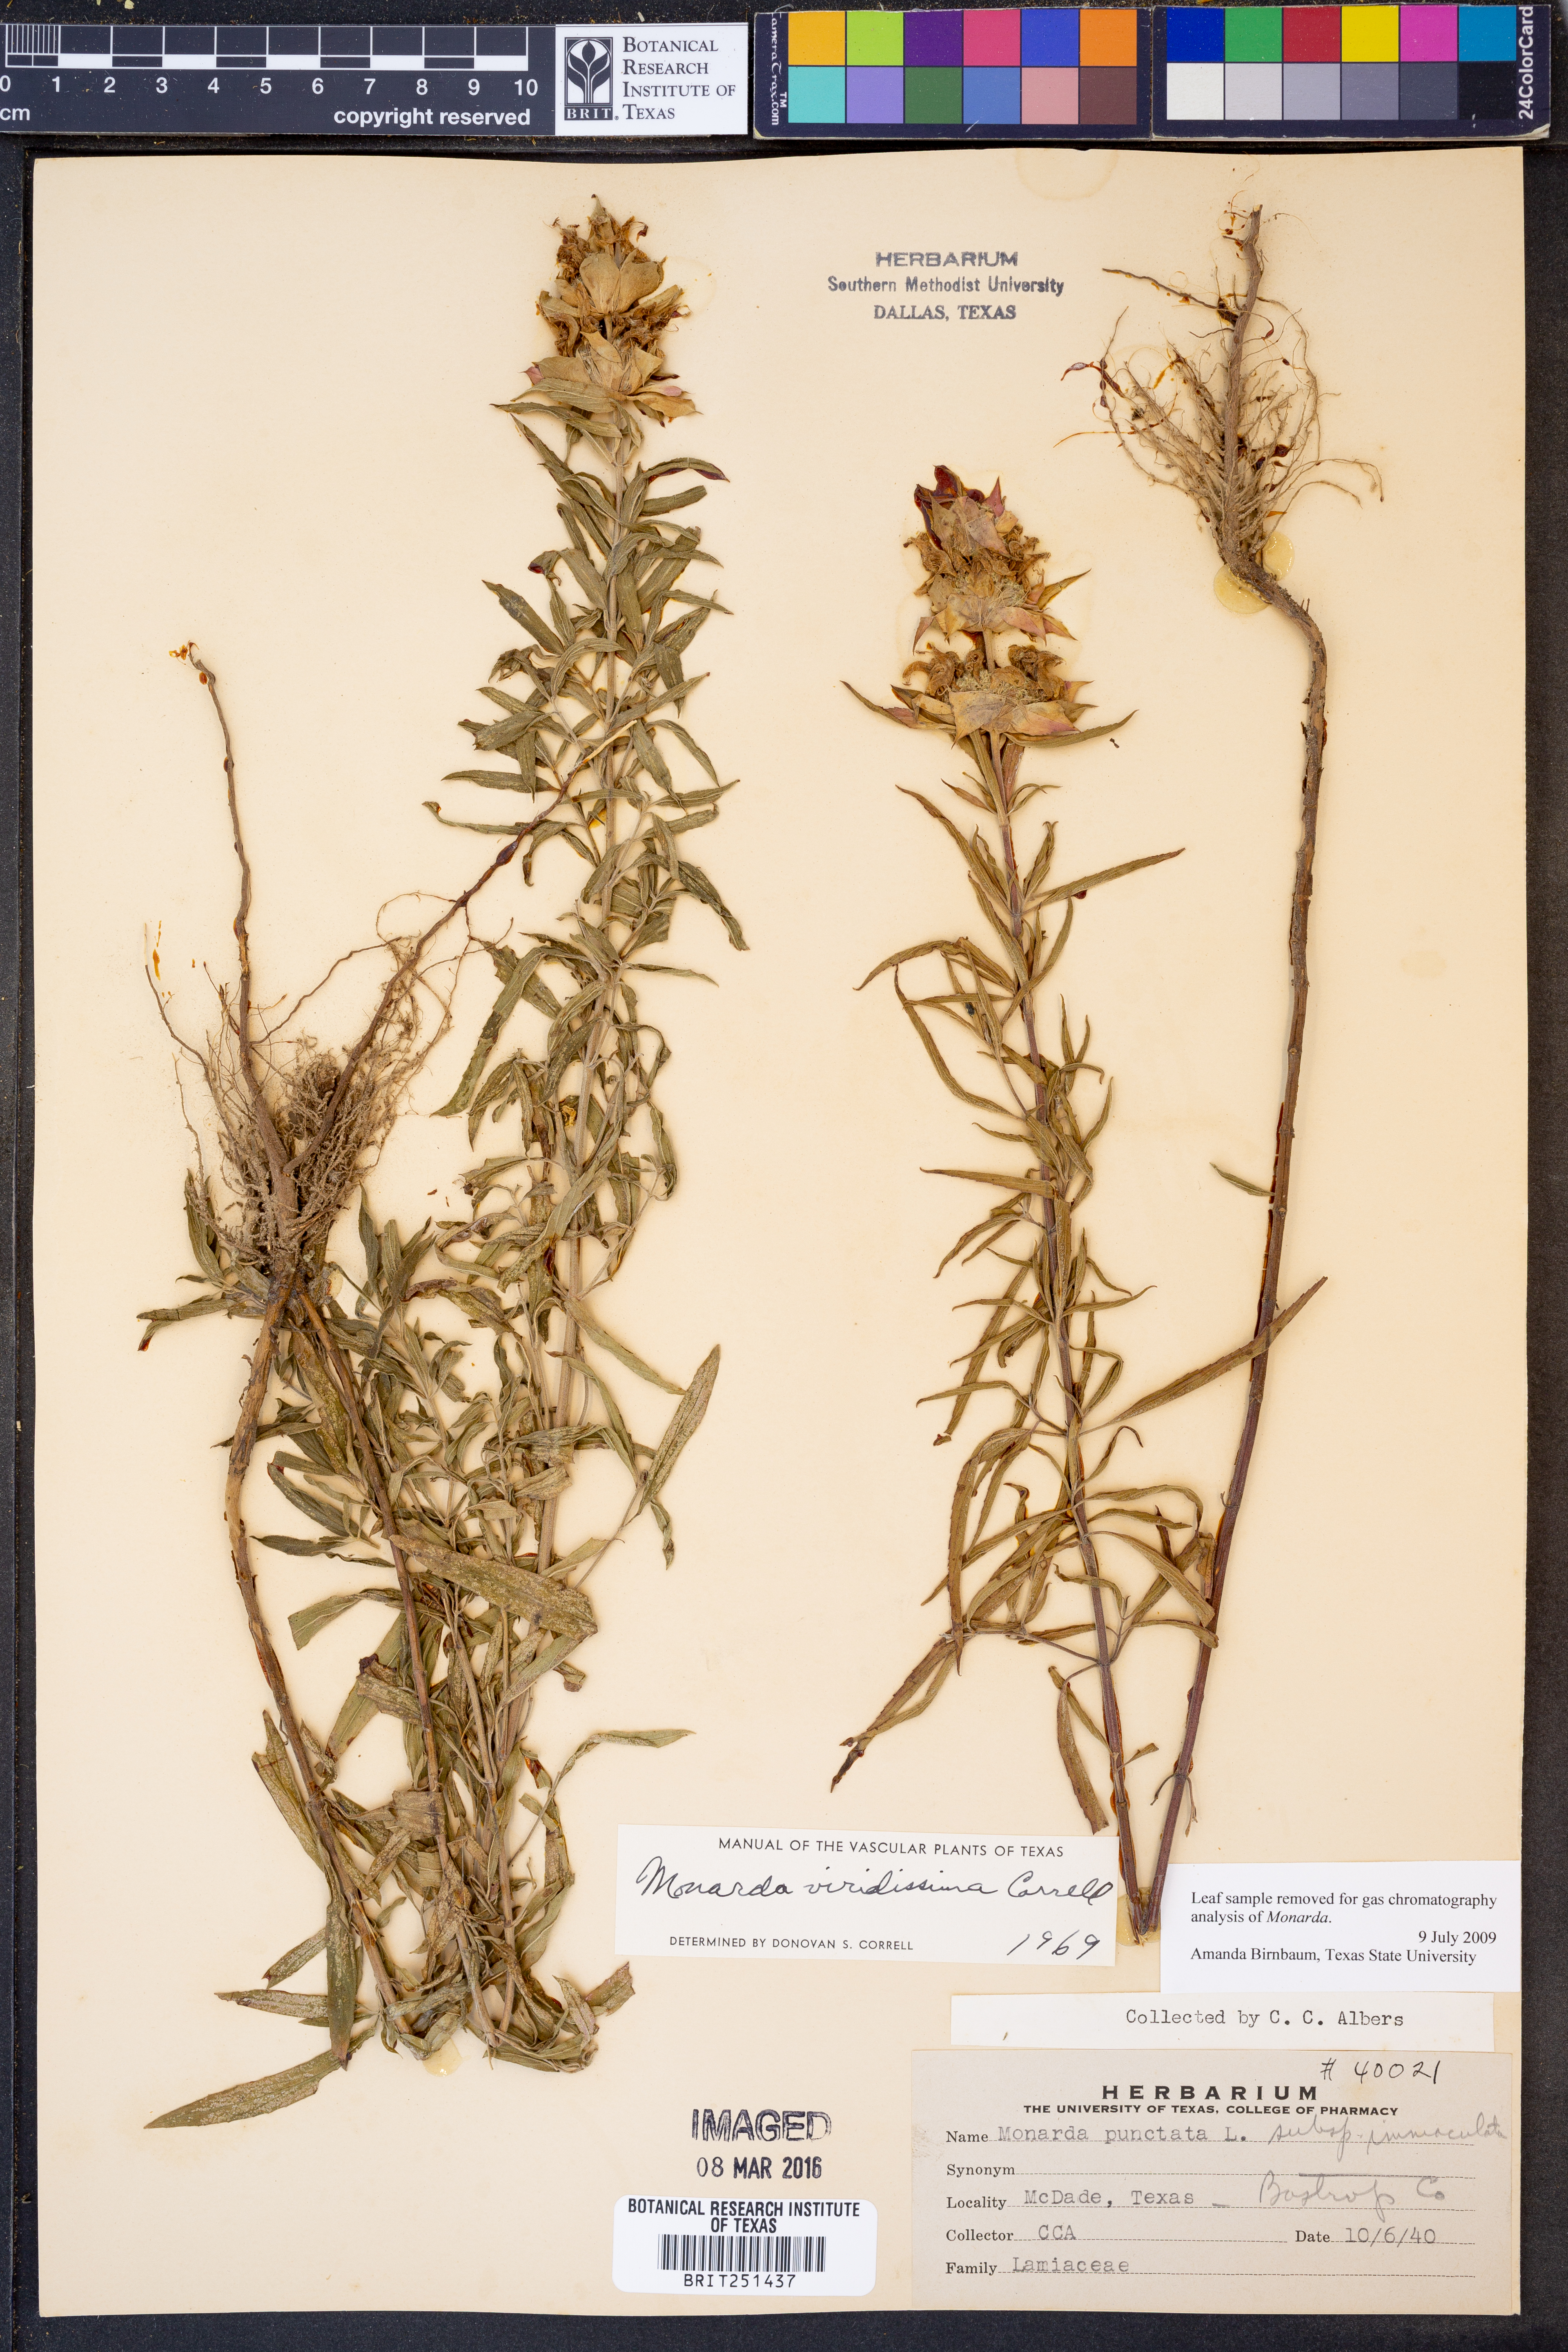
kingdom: Plantae
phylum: Tracheophyta
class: Magnoliopsida
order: Lamiales
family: Lamiaceae
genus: Monarda
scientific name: Monarda viridissima
